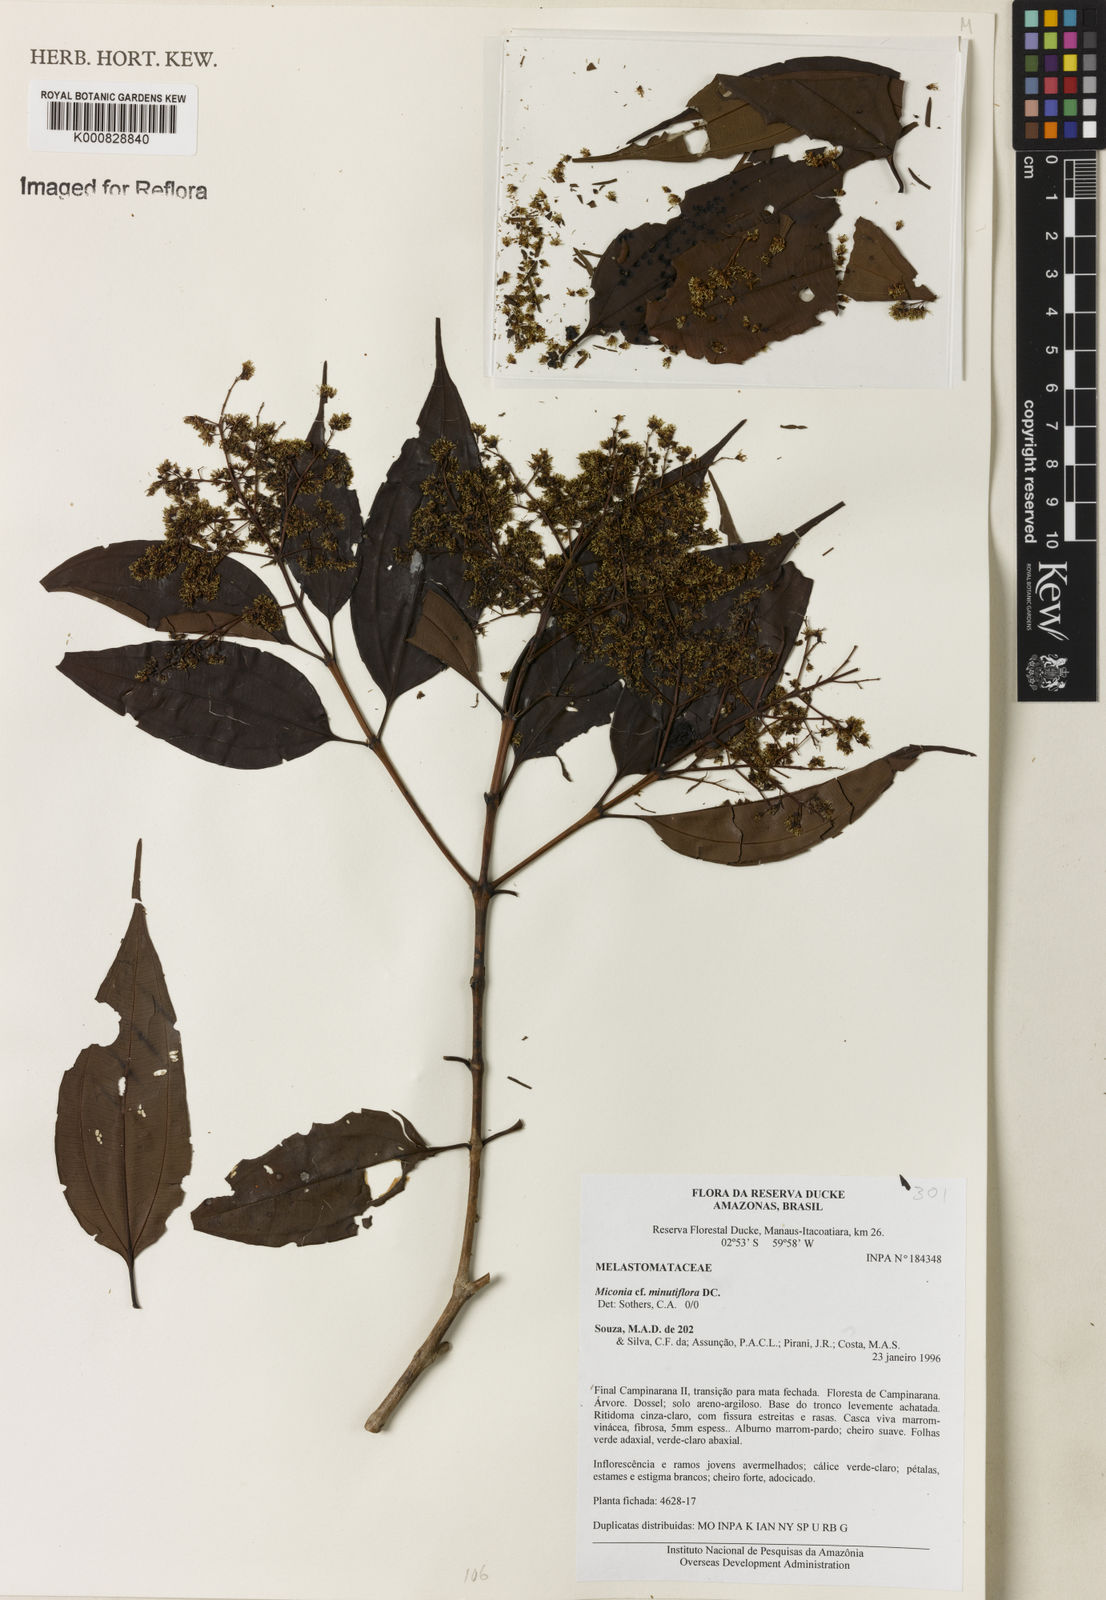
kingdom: Plantae
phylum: Tracheophyta
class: Magnoliopsida
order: Myrtales
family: Melastomataceae
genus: Miconia
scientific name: Miconia minutiflora
